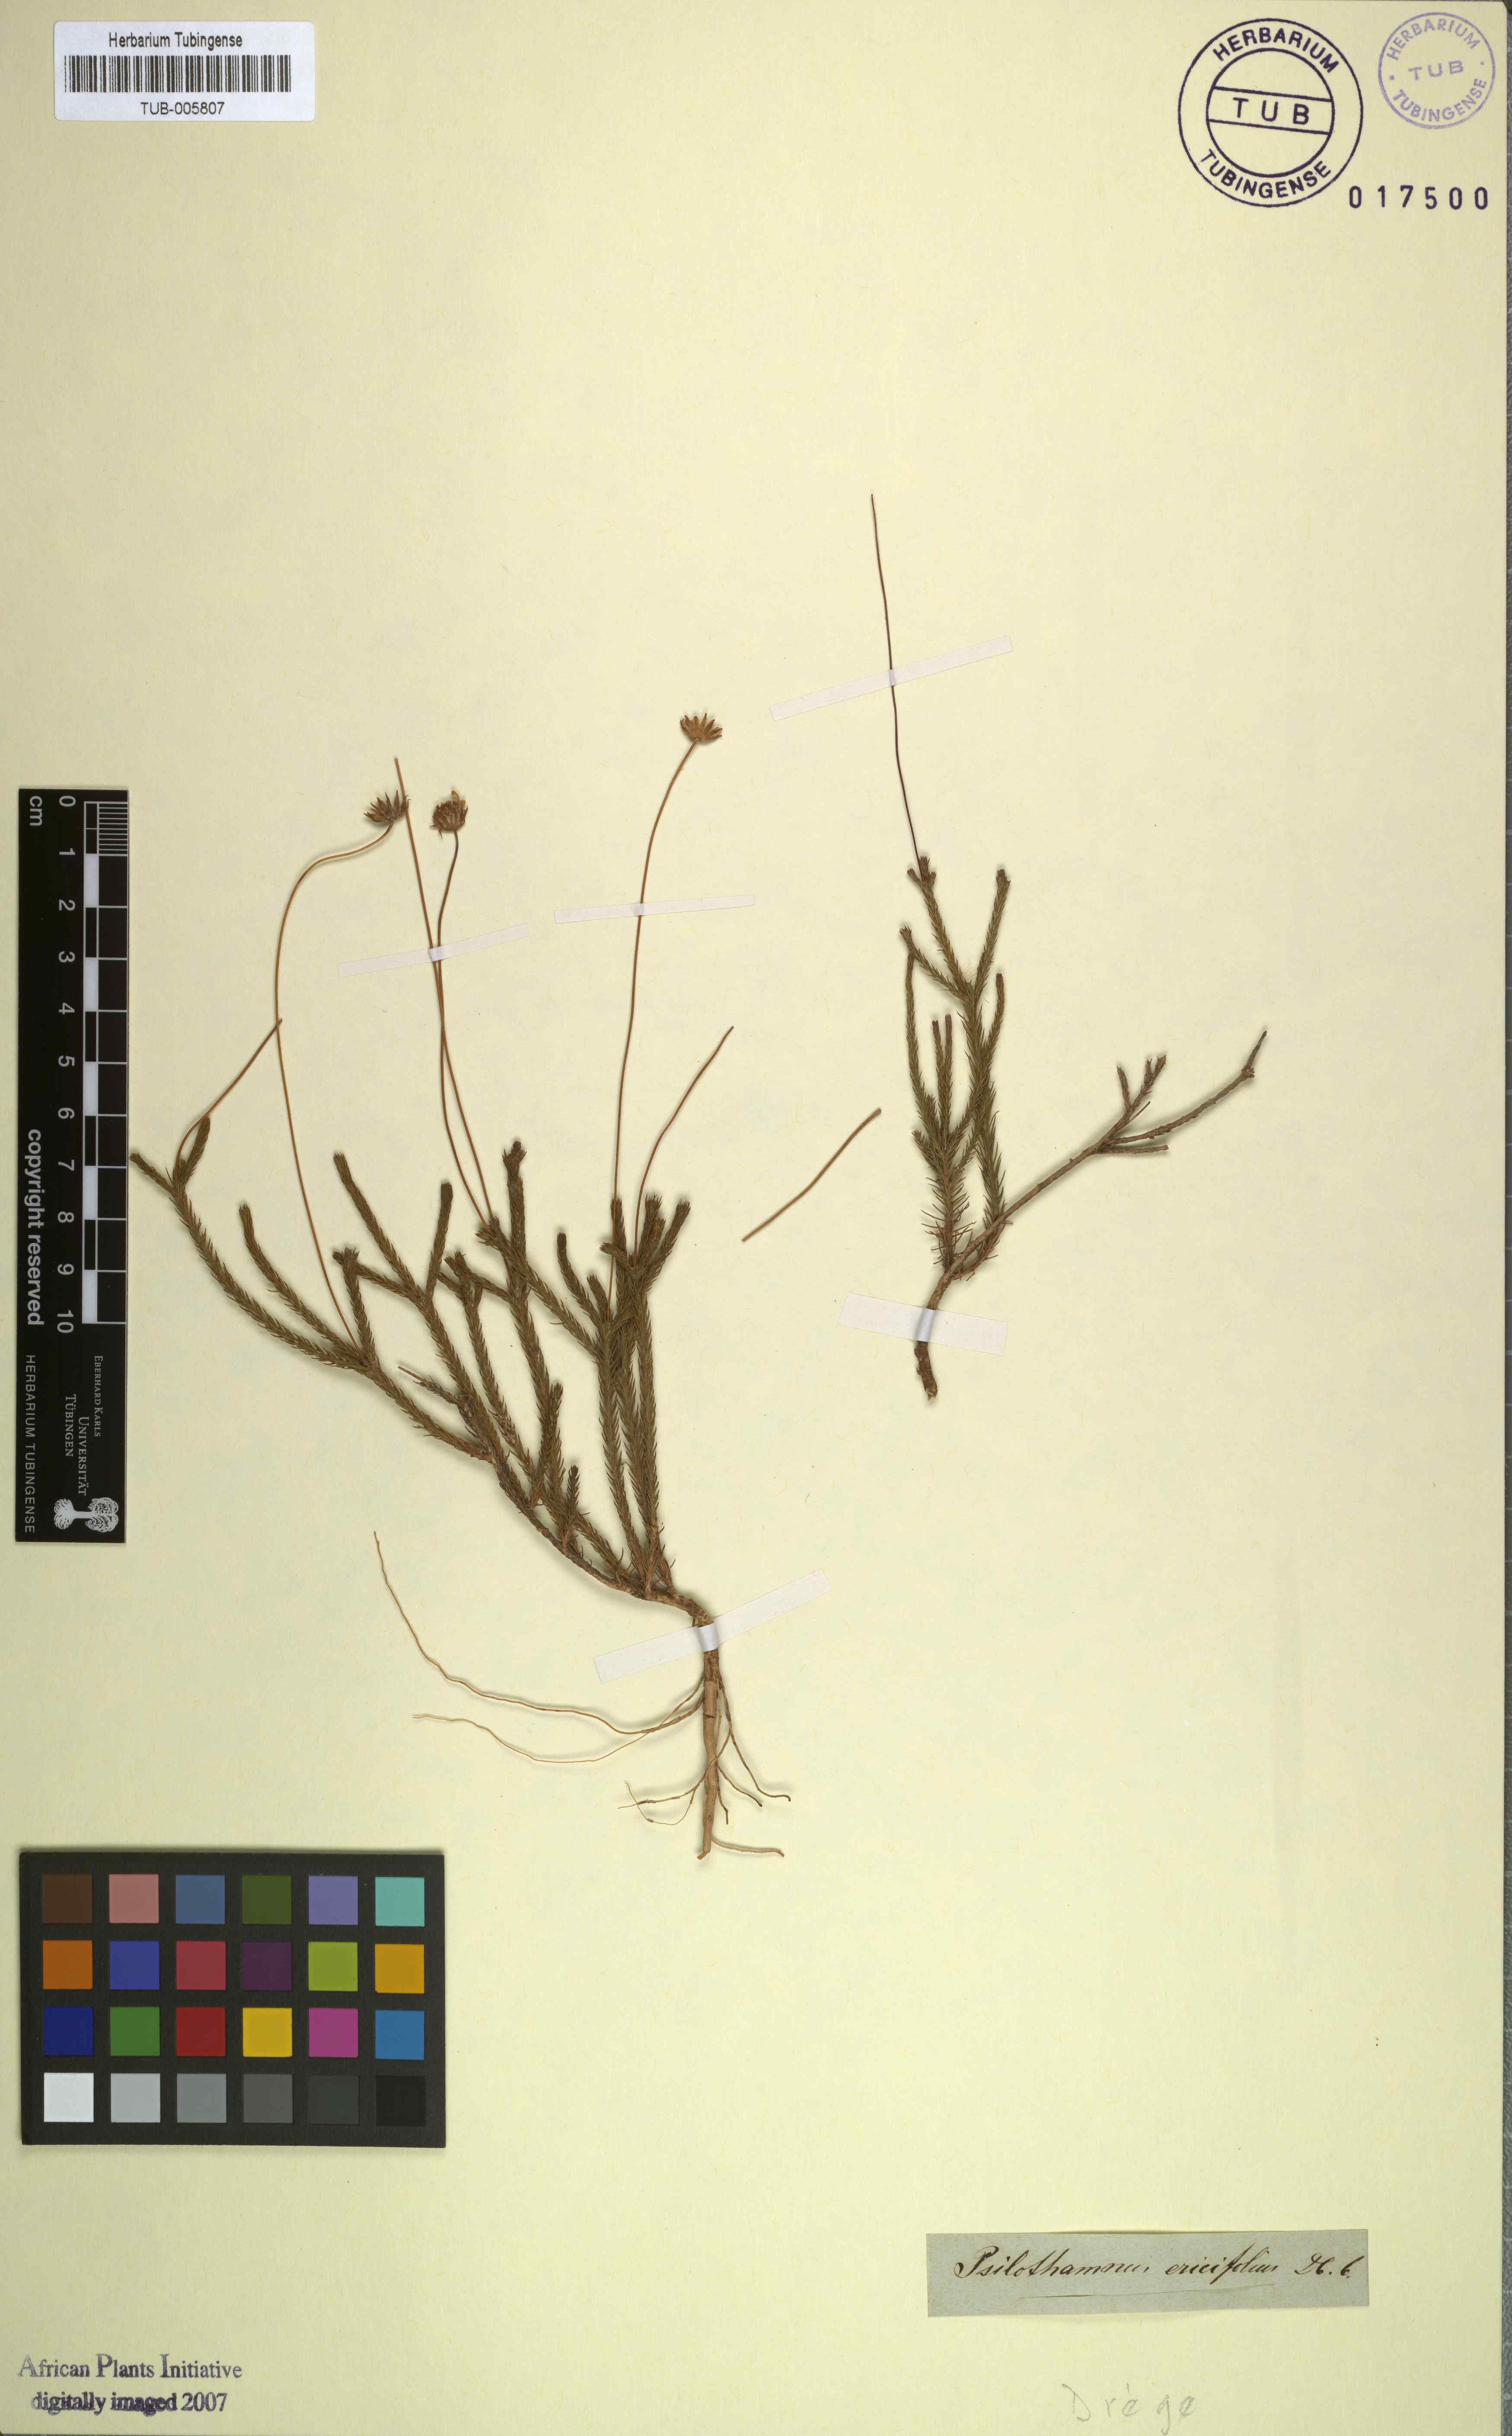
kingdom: Plantae
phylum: Tracheophyta
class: Magnoliopsida
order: Asterales
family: Asteraceae
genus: Euryops
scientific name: Euryops ericoides
